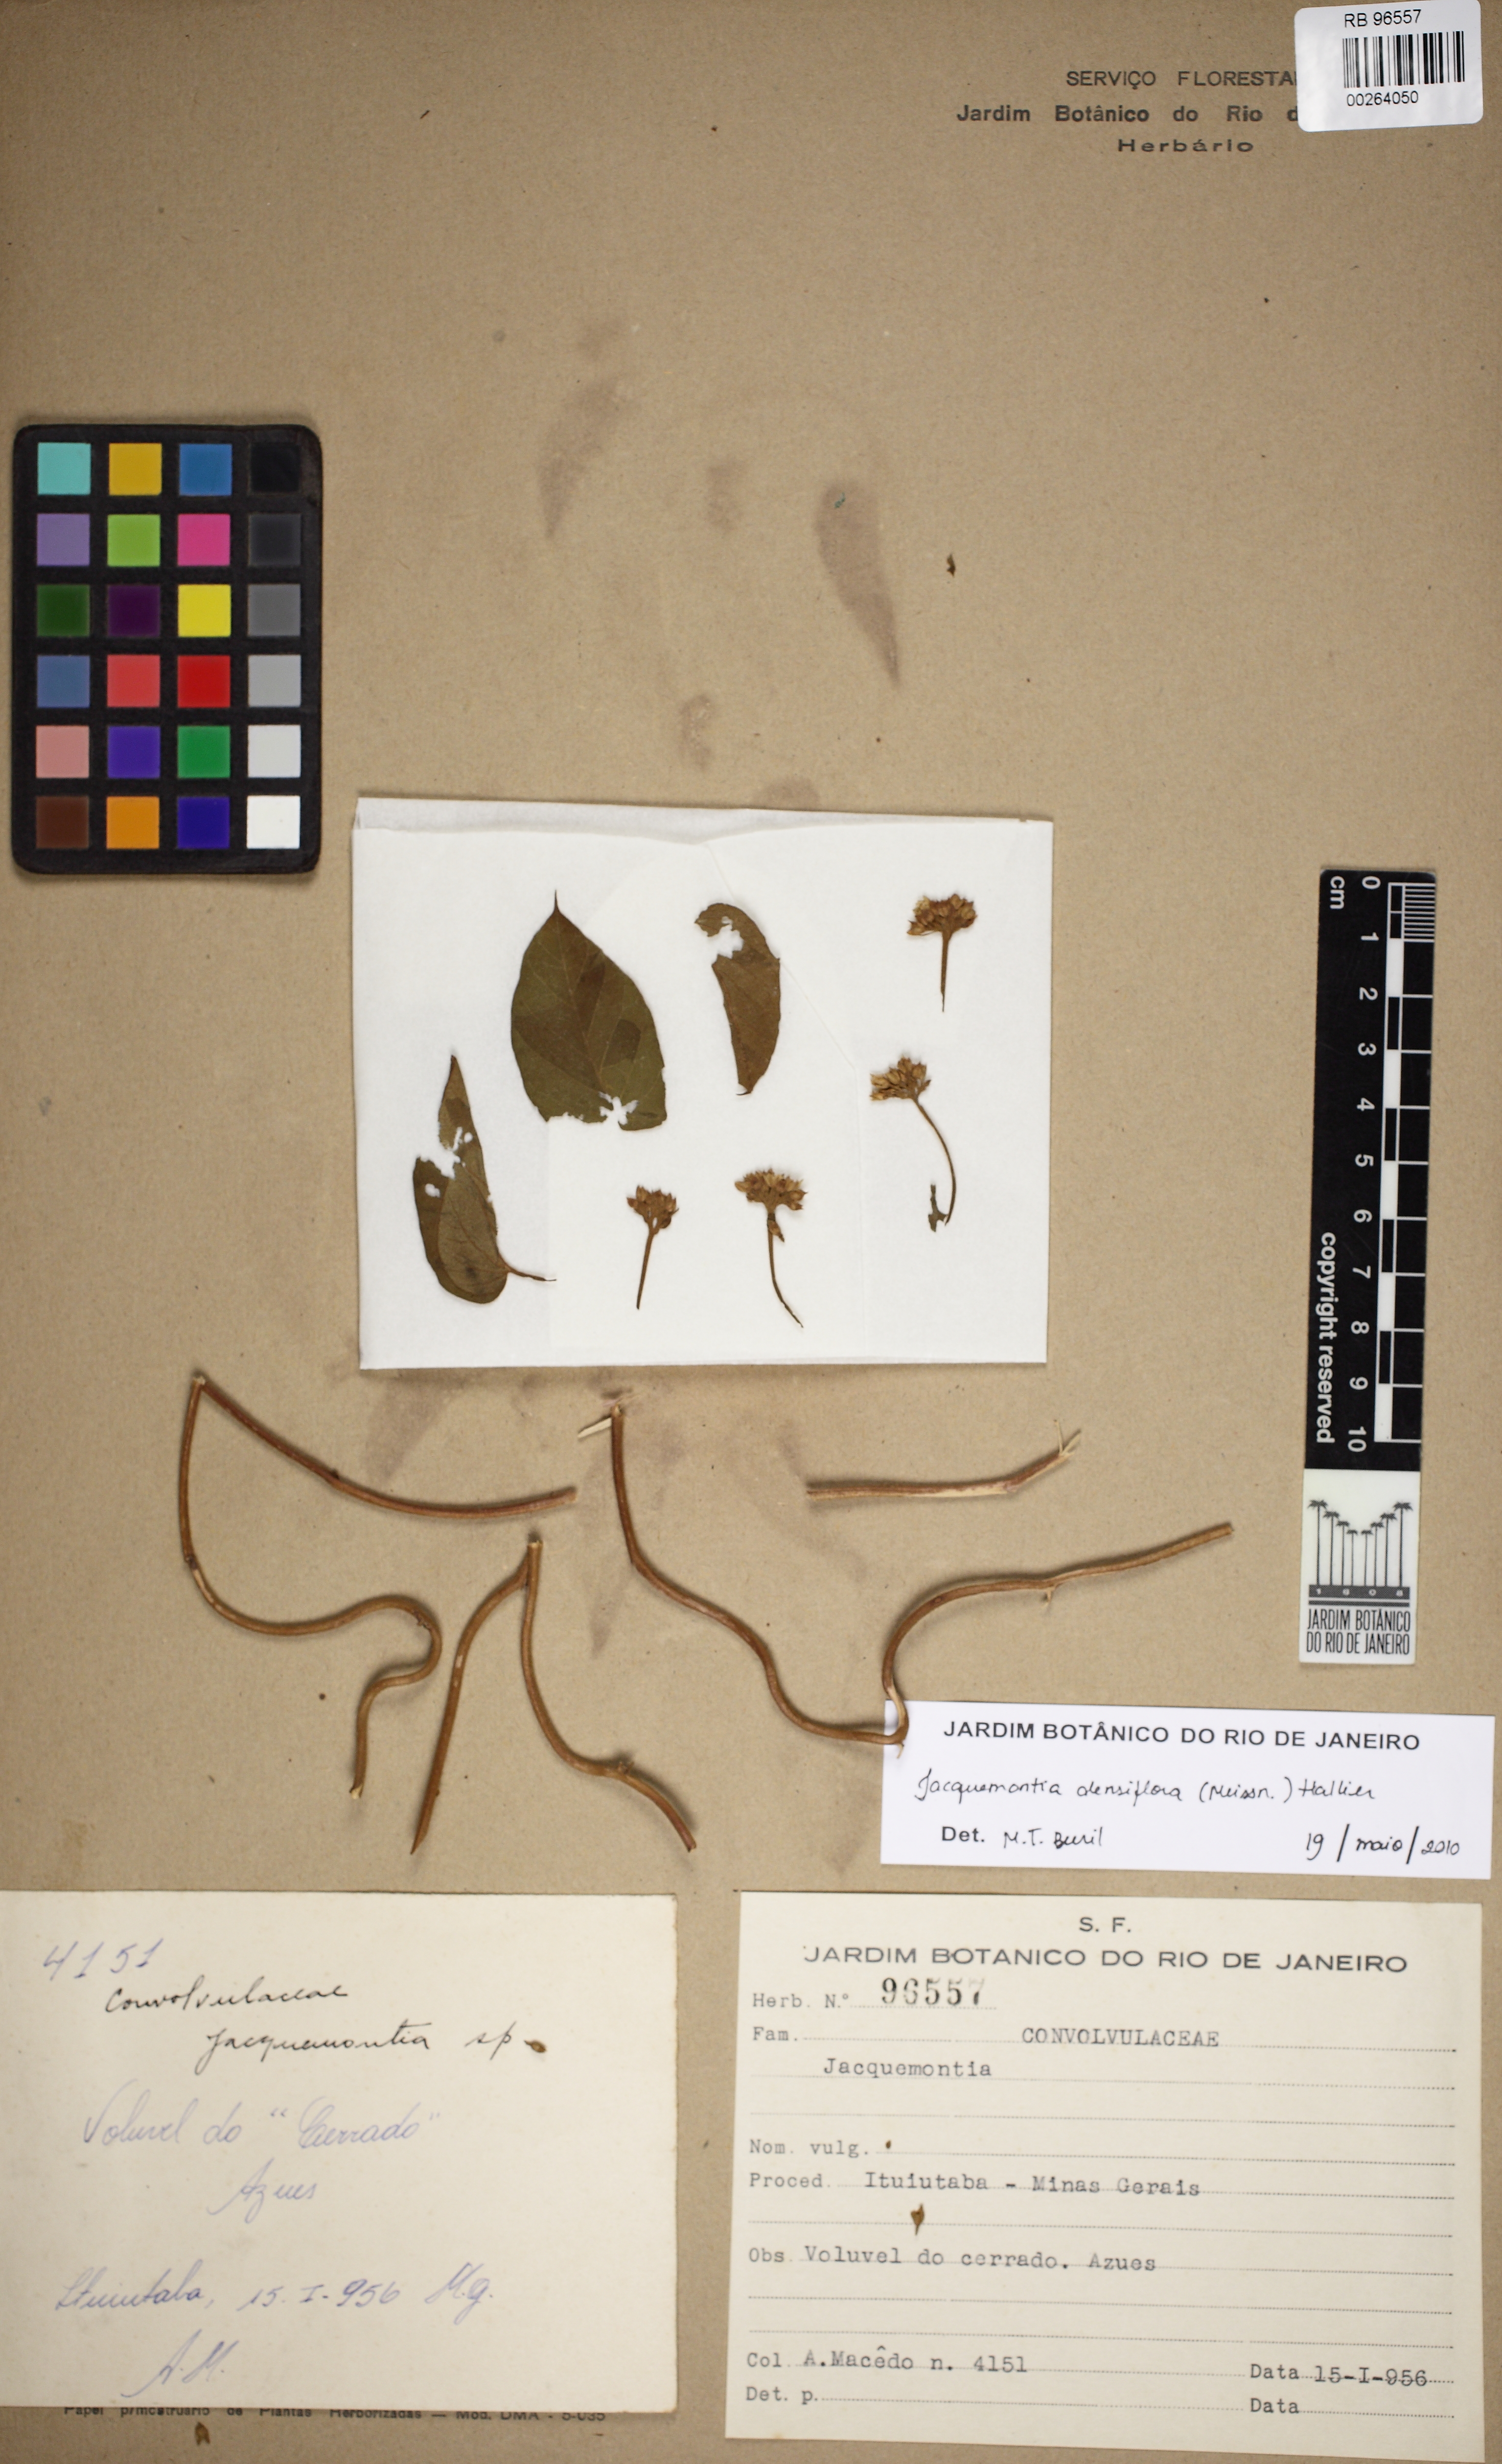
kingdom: Plantae
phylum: Tracheophyta
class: Magnoliopsida
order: Solanales
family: Convolvulaceae
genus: Jacquemontia
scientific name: Jacquemontia densiflora
